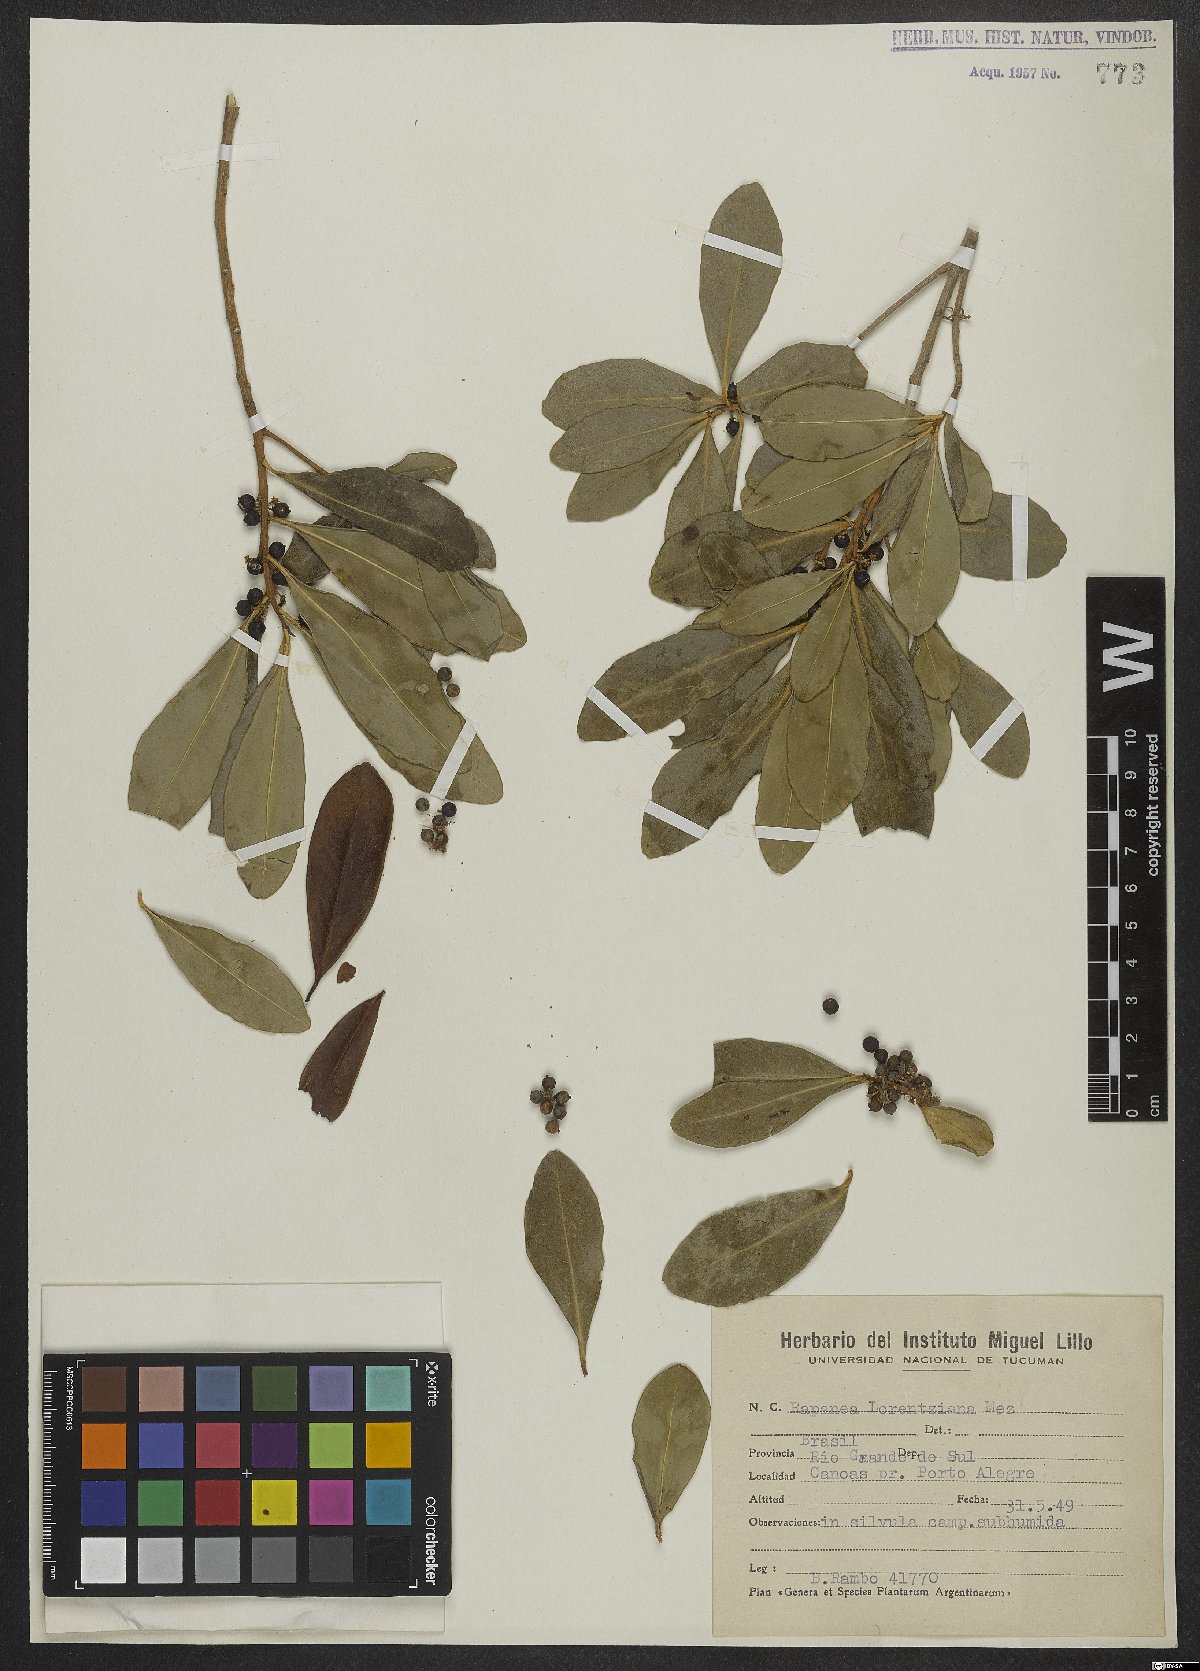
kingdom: Plantae
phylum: Tracheophyta
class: Magnoliopsida
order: Ericales
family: Primulaceae
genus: Myrsine
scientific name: Myrsine lorentziana
